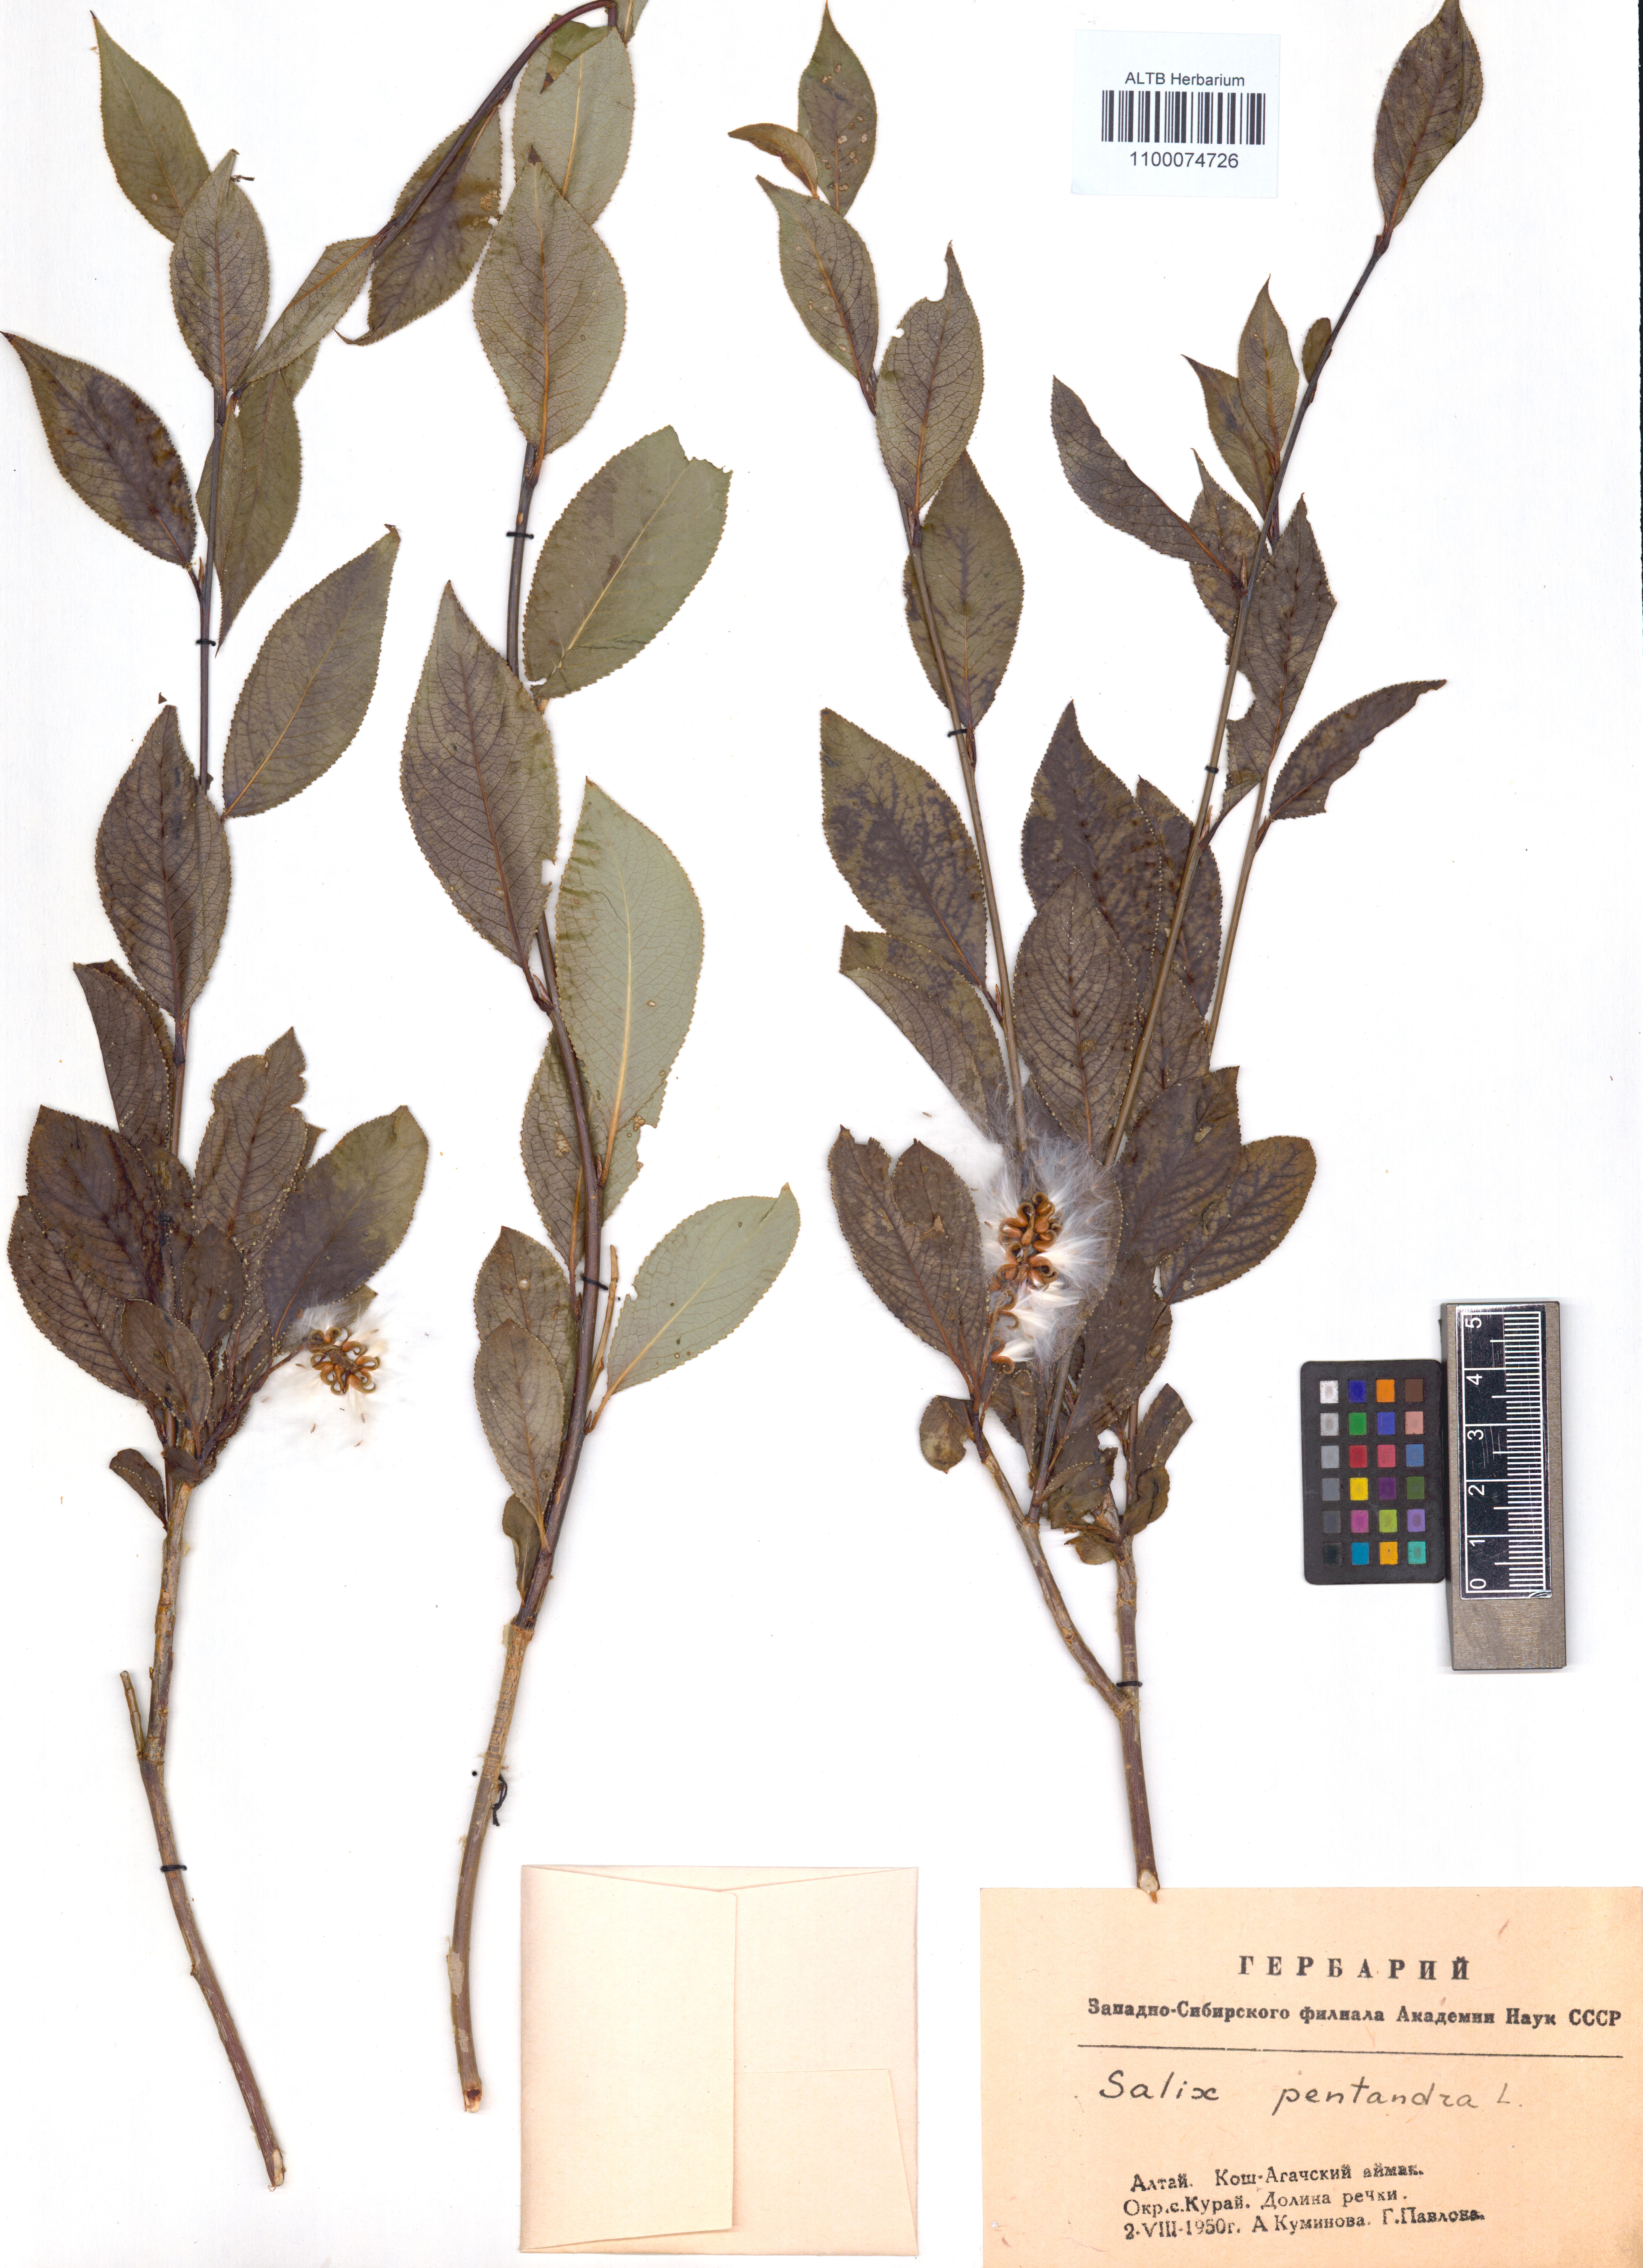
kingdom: Plantae
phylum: Tracheophyta
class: Magnoliopsida
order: Malpighiales
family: Salicaceae
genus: Salix
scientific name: Salix pentandra
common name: Bay willow
